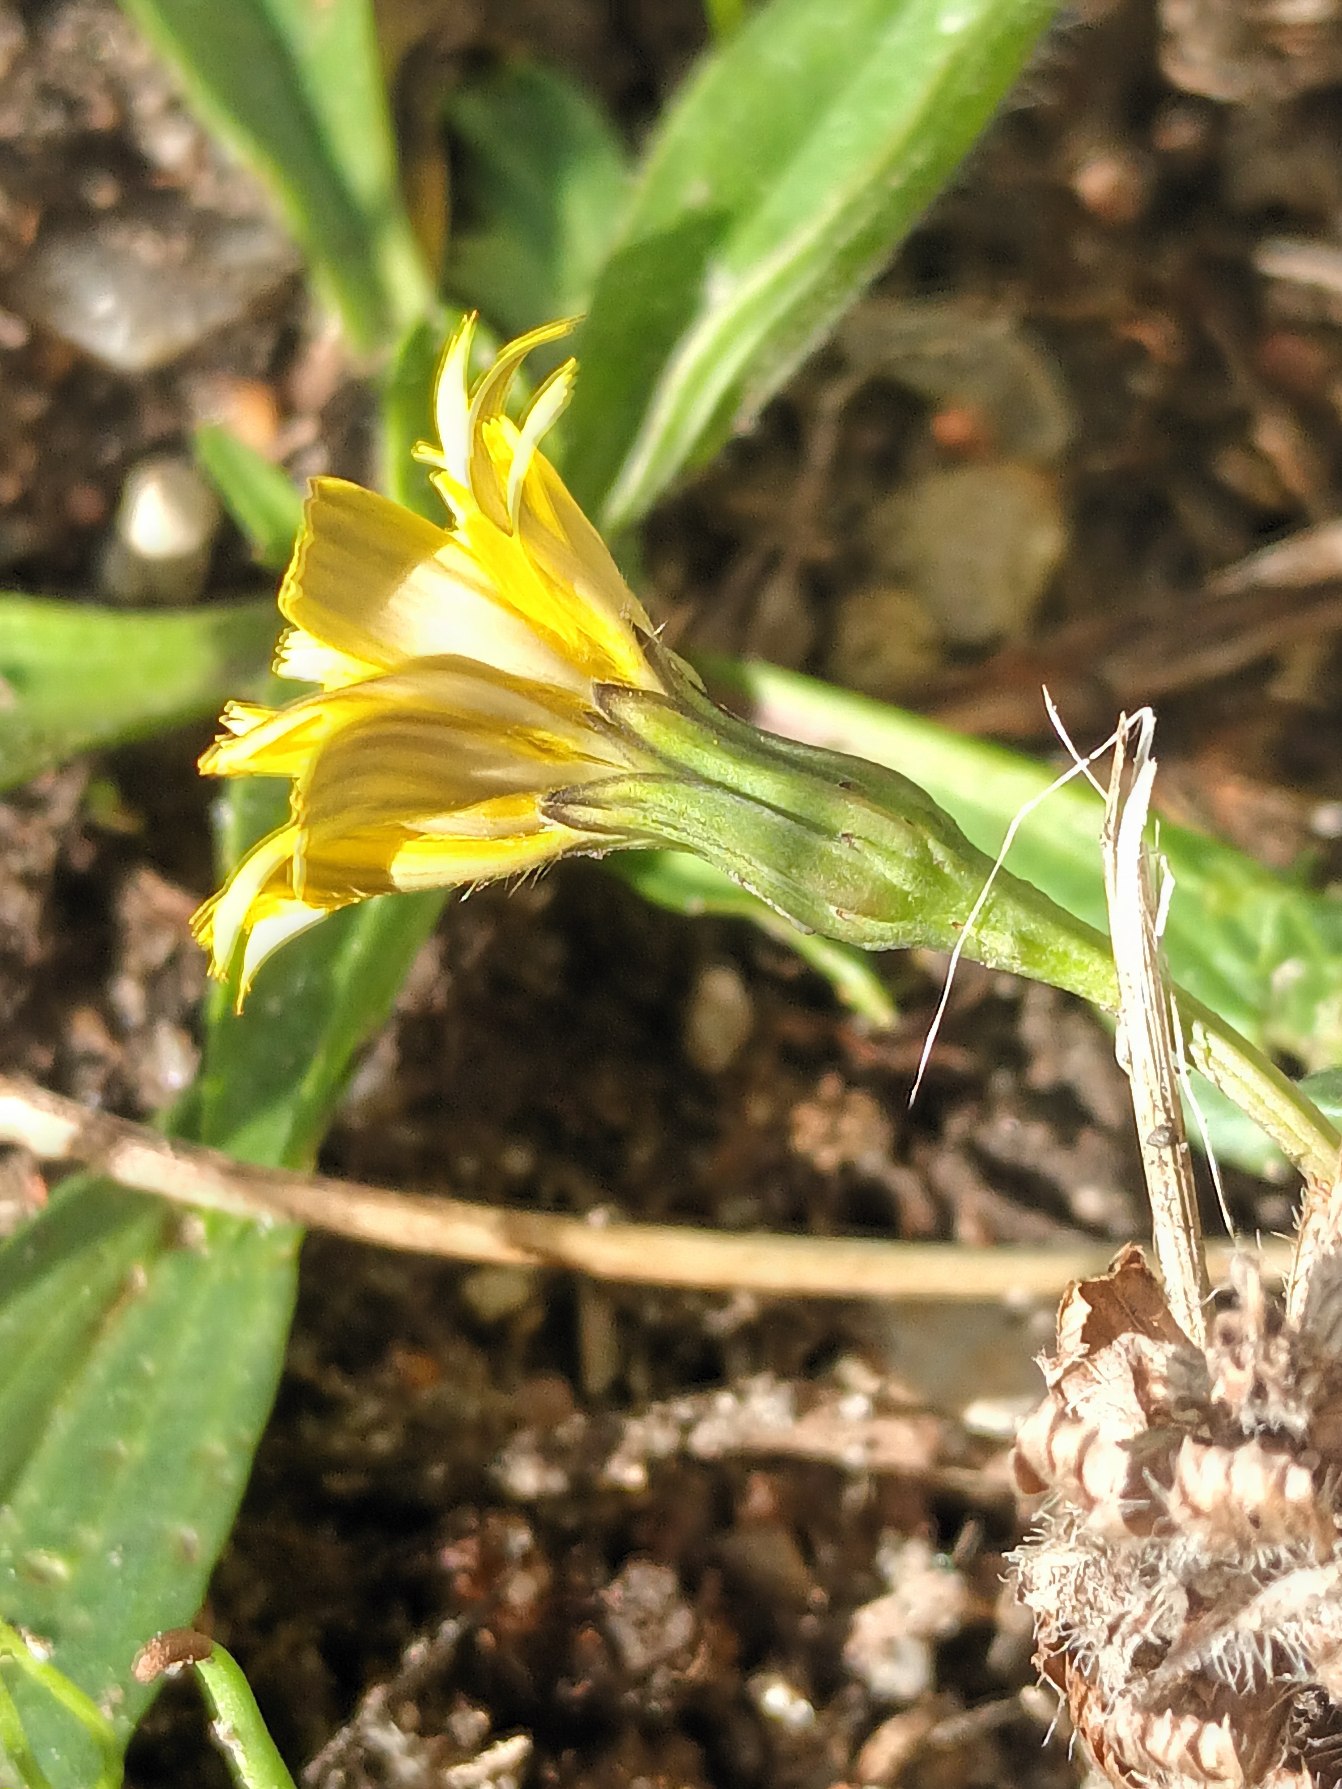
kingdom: Plantae
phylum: Tracheophyta
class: Magnoliopsida
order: Asterales
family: Asteraceae
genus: Thrincia
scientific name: Thrincia saxatilis
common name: Hundesalat
